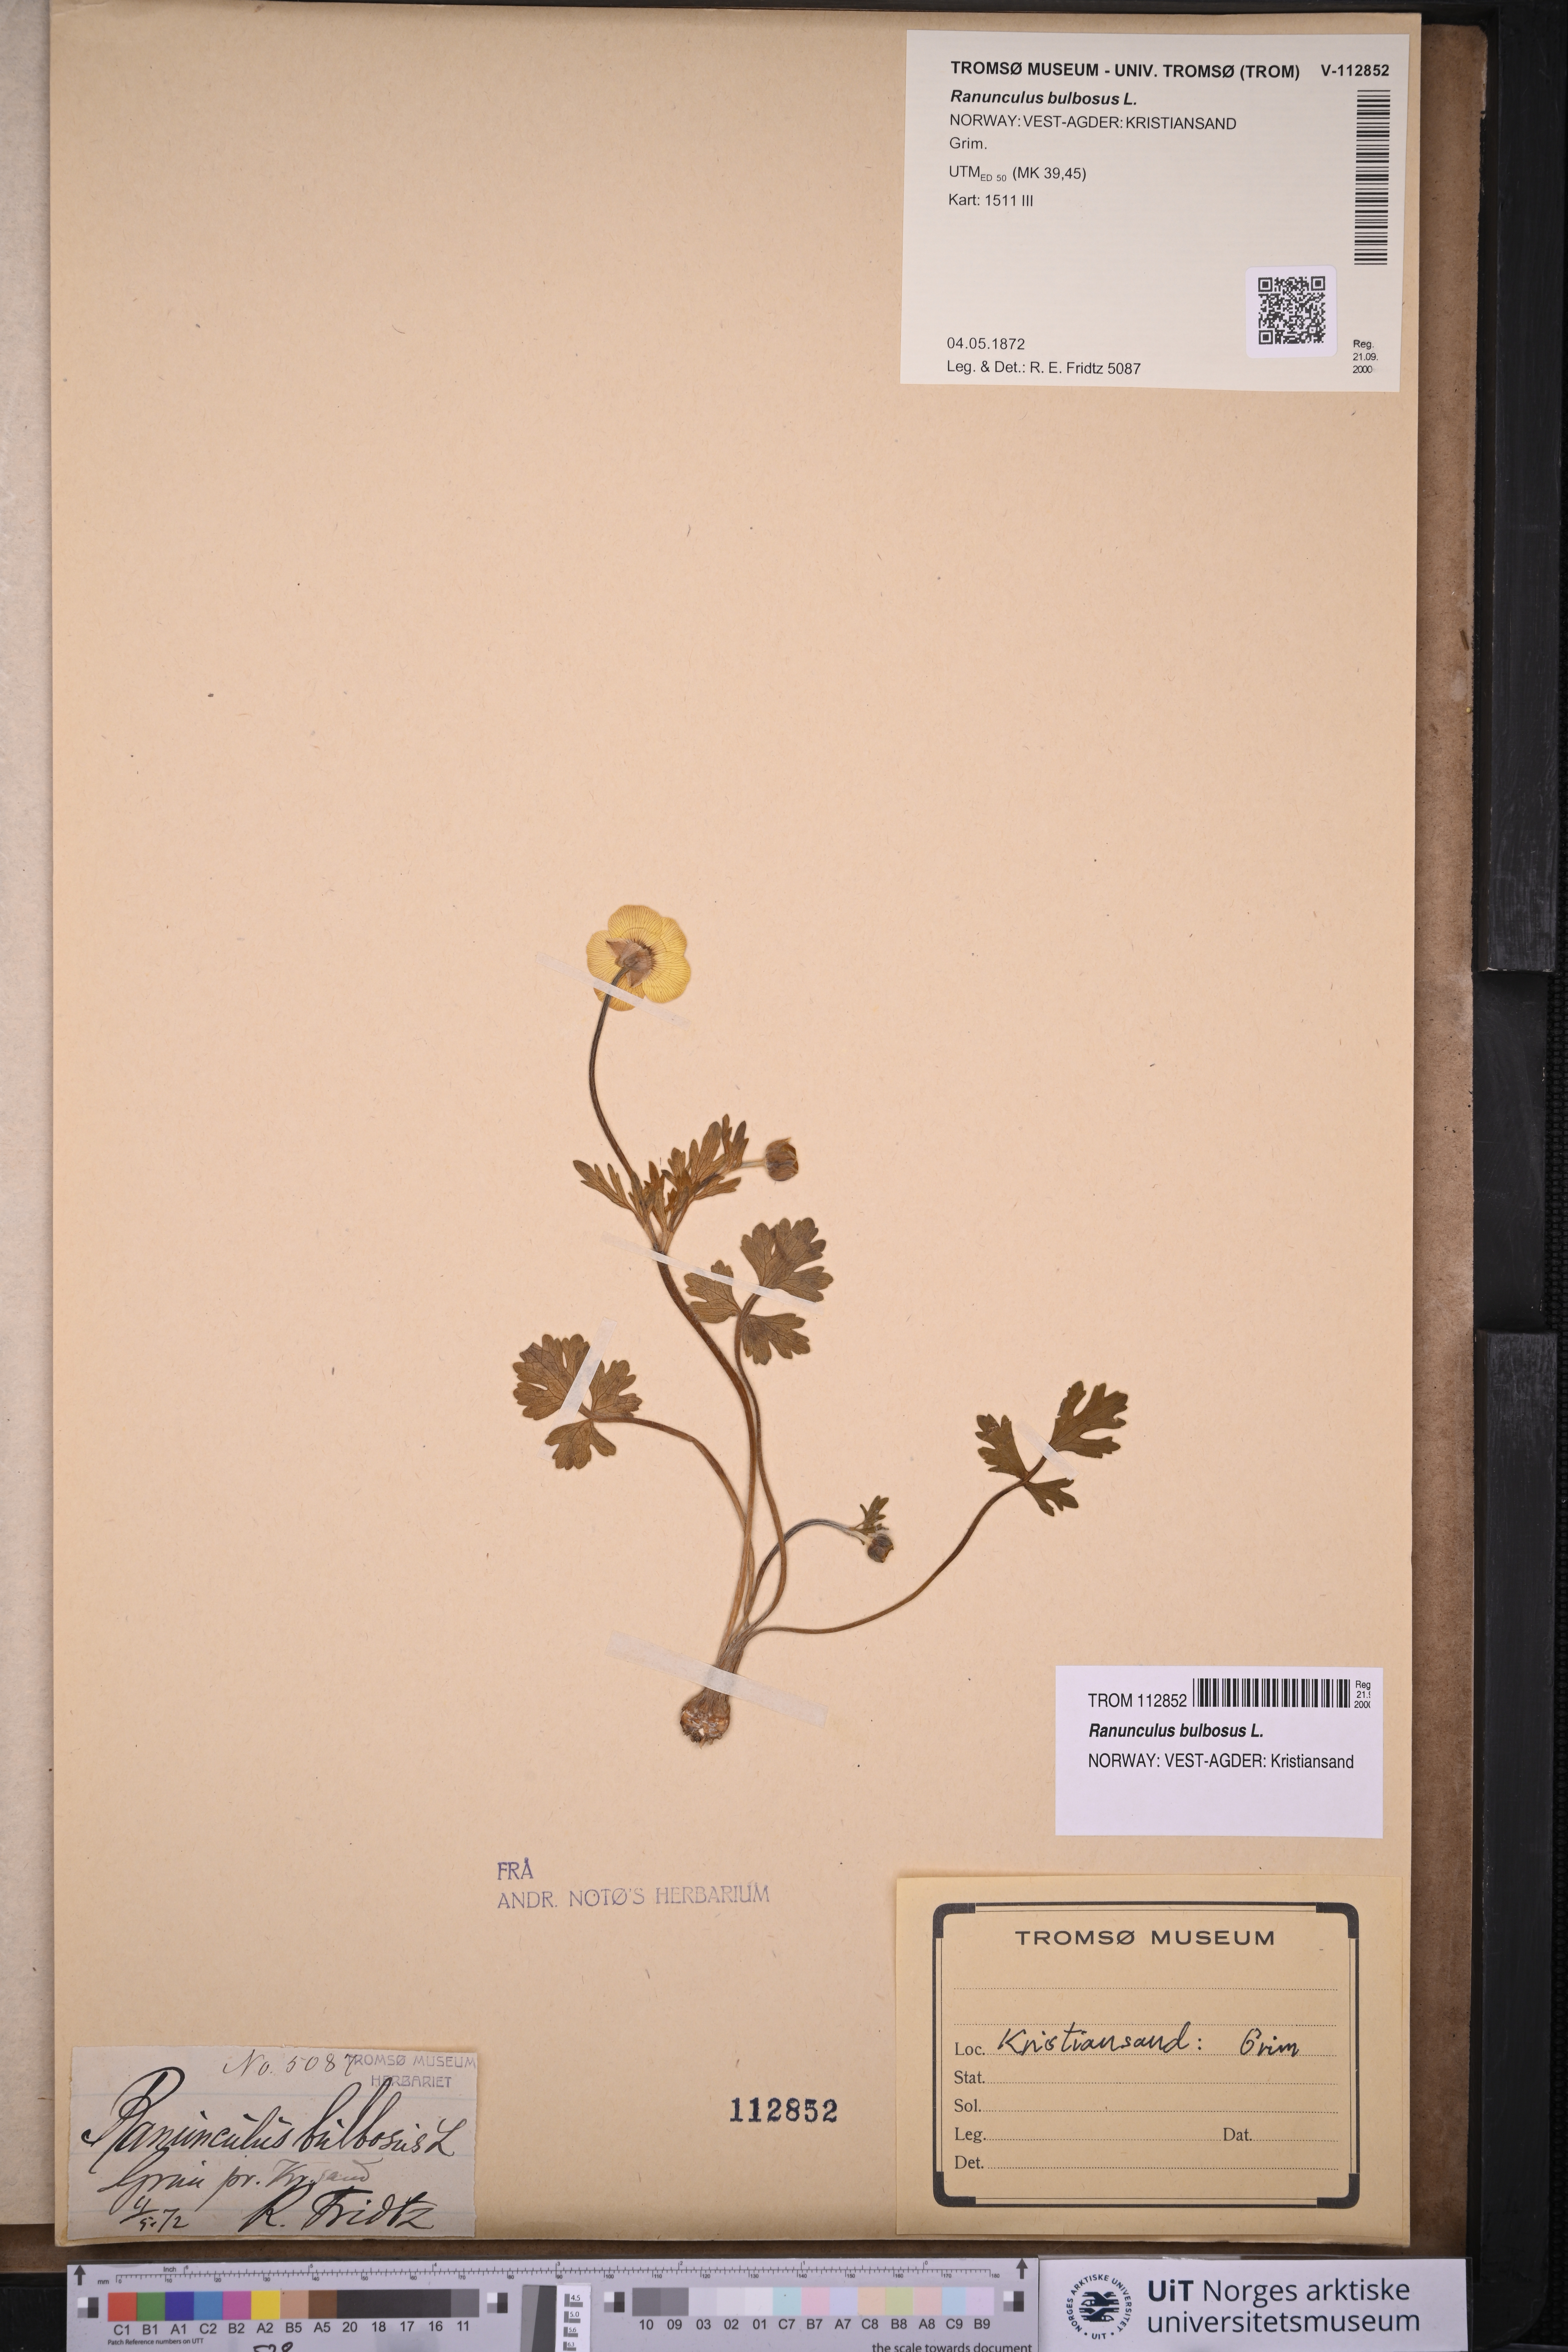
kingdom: Plantae
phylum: Tracheophyta
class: Magnoliopsida
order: Ranunculales
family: Ranunculaceae
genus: Ranunculus
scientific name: Ranunculus bulbosus
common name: Bulbous buttercup
